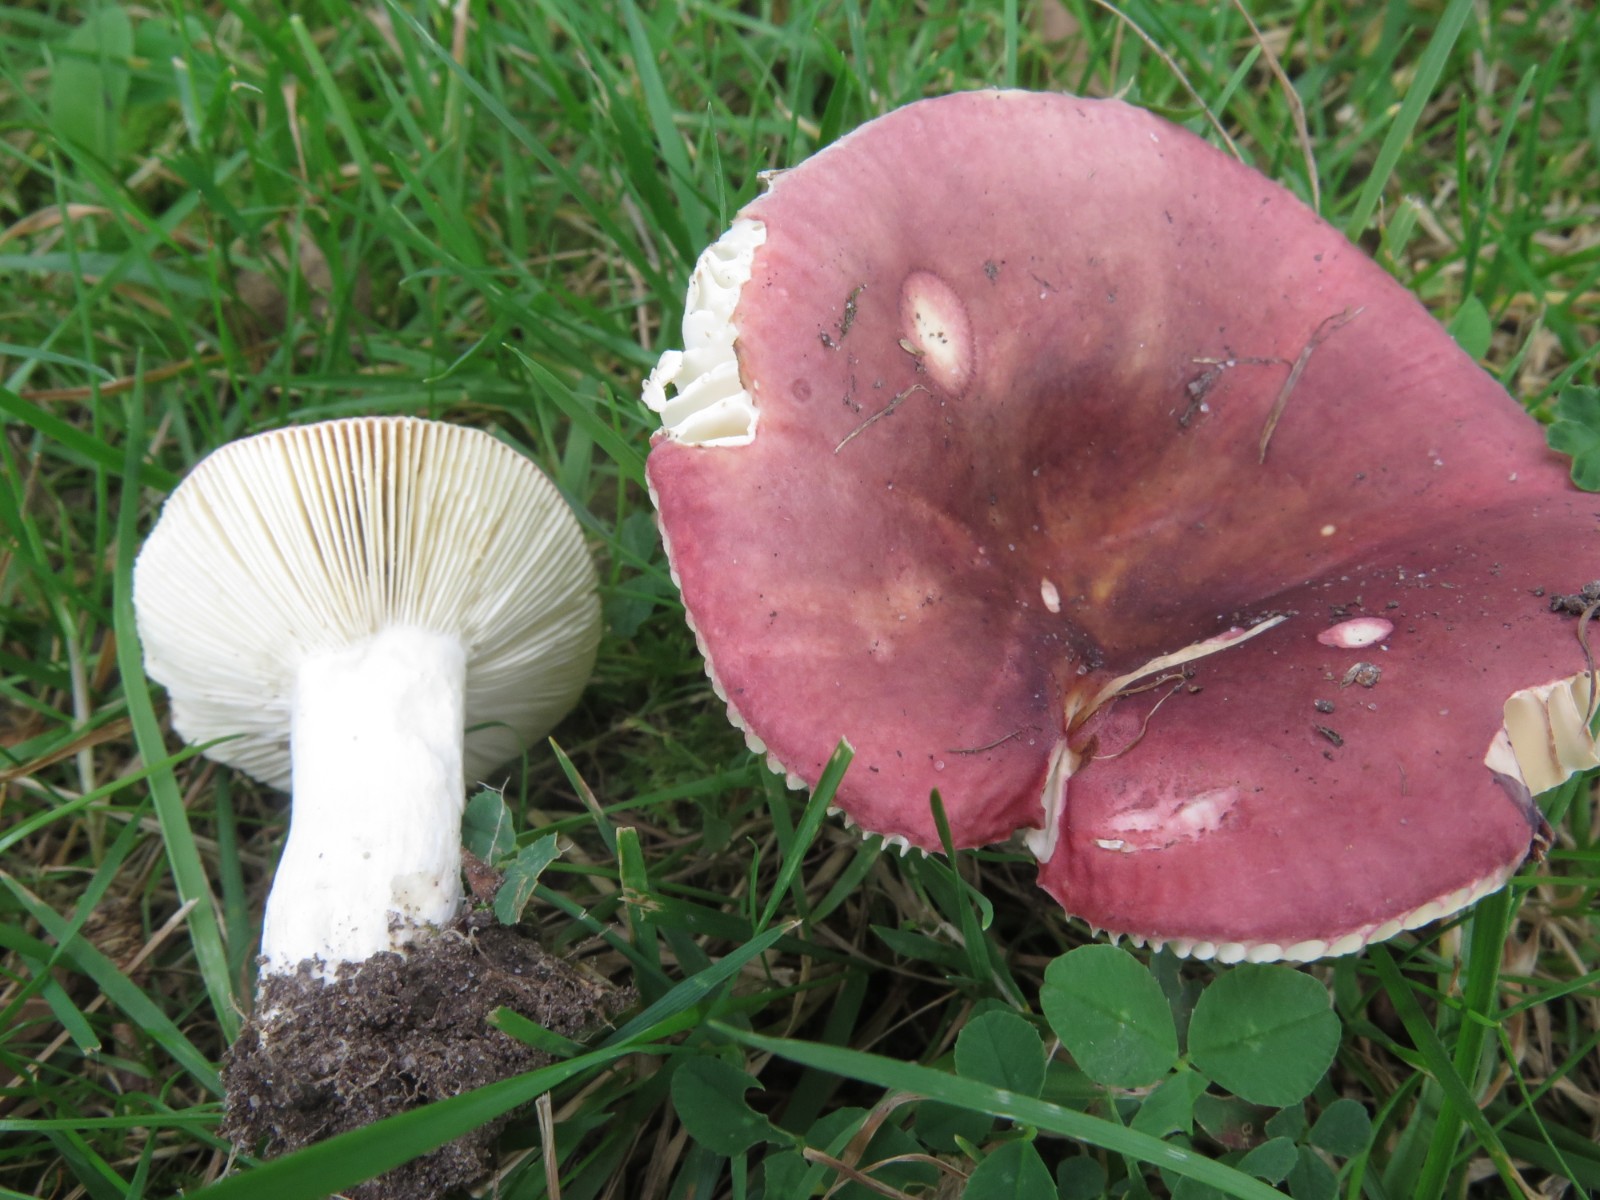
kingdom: Fungi
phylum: Basidiomycota
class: Agaricomycetes
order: Russulales
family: Russulaceae
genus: Russula
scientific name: Russula atropurpurea
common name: purpurbroget skørhat
